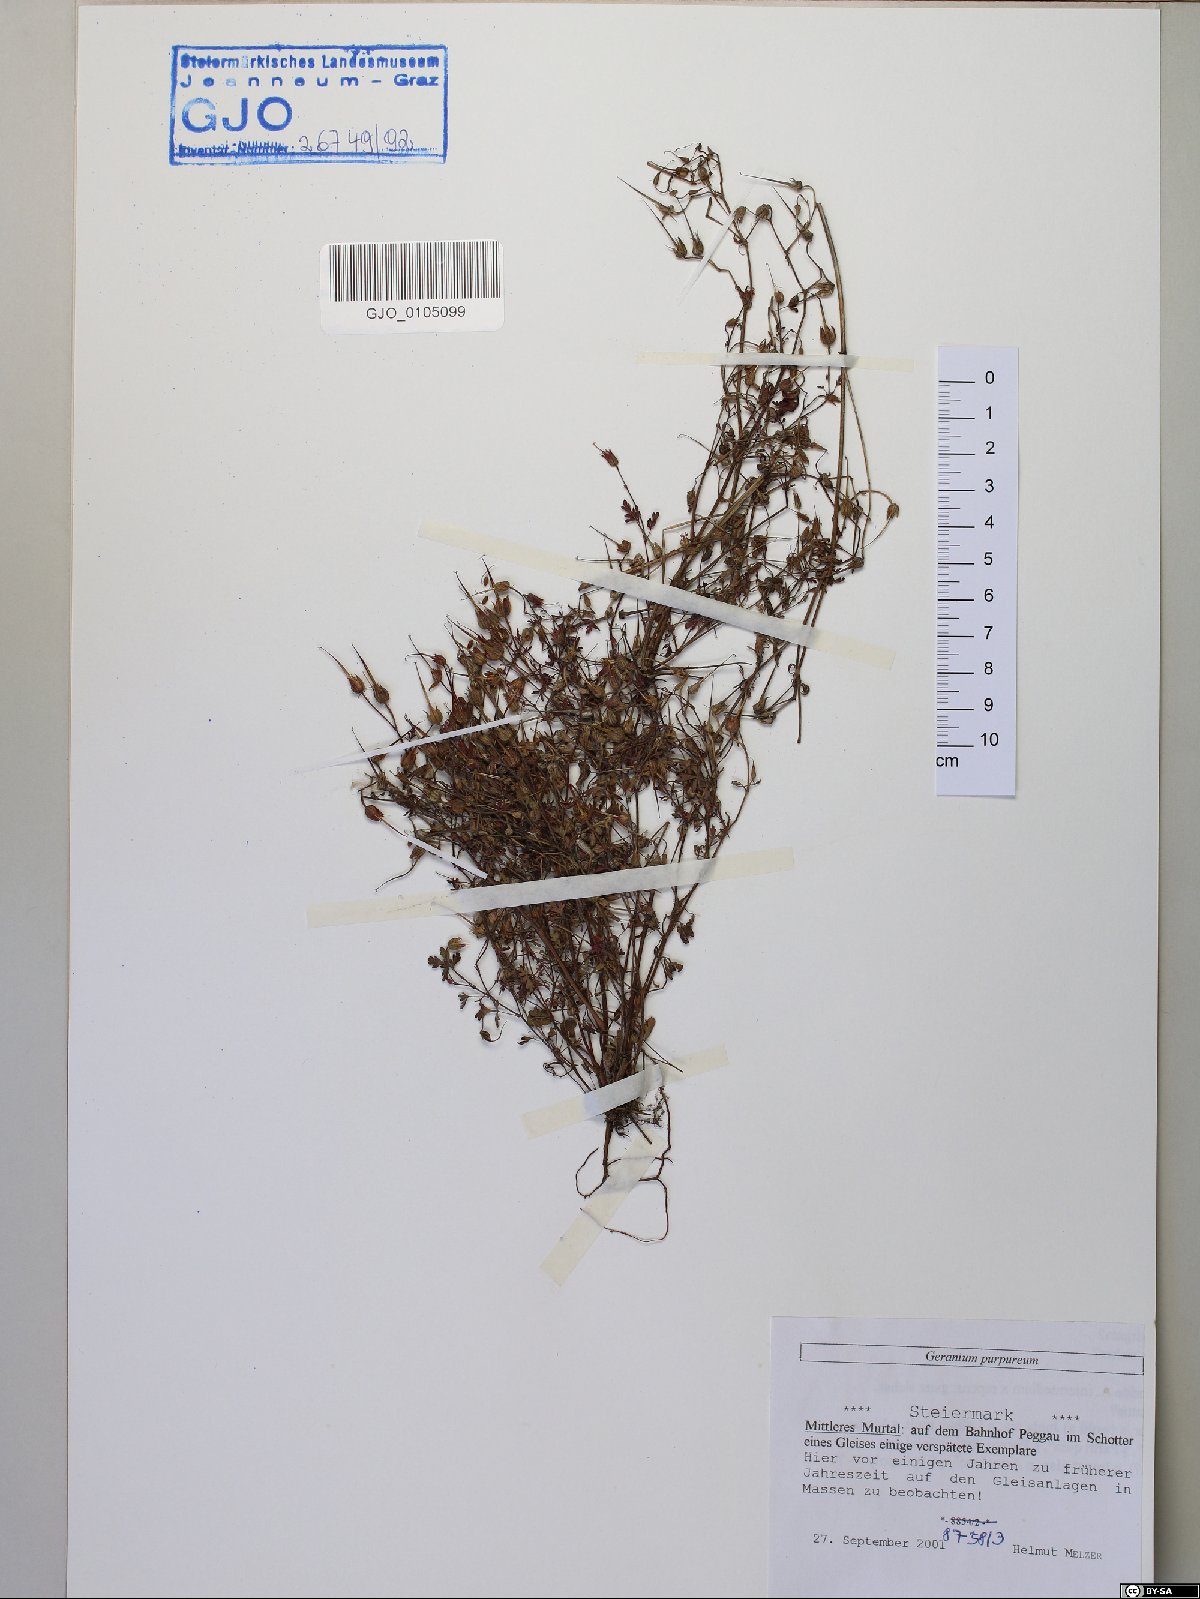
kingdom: Plantae
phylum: Tracheophyta
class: Magnoliopsida
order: Geraniales
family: Geraniaceae
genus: Geranium
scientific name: Geranium purpureum
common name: Little-robin
